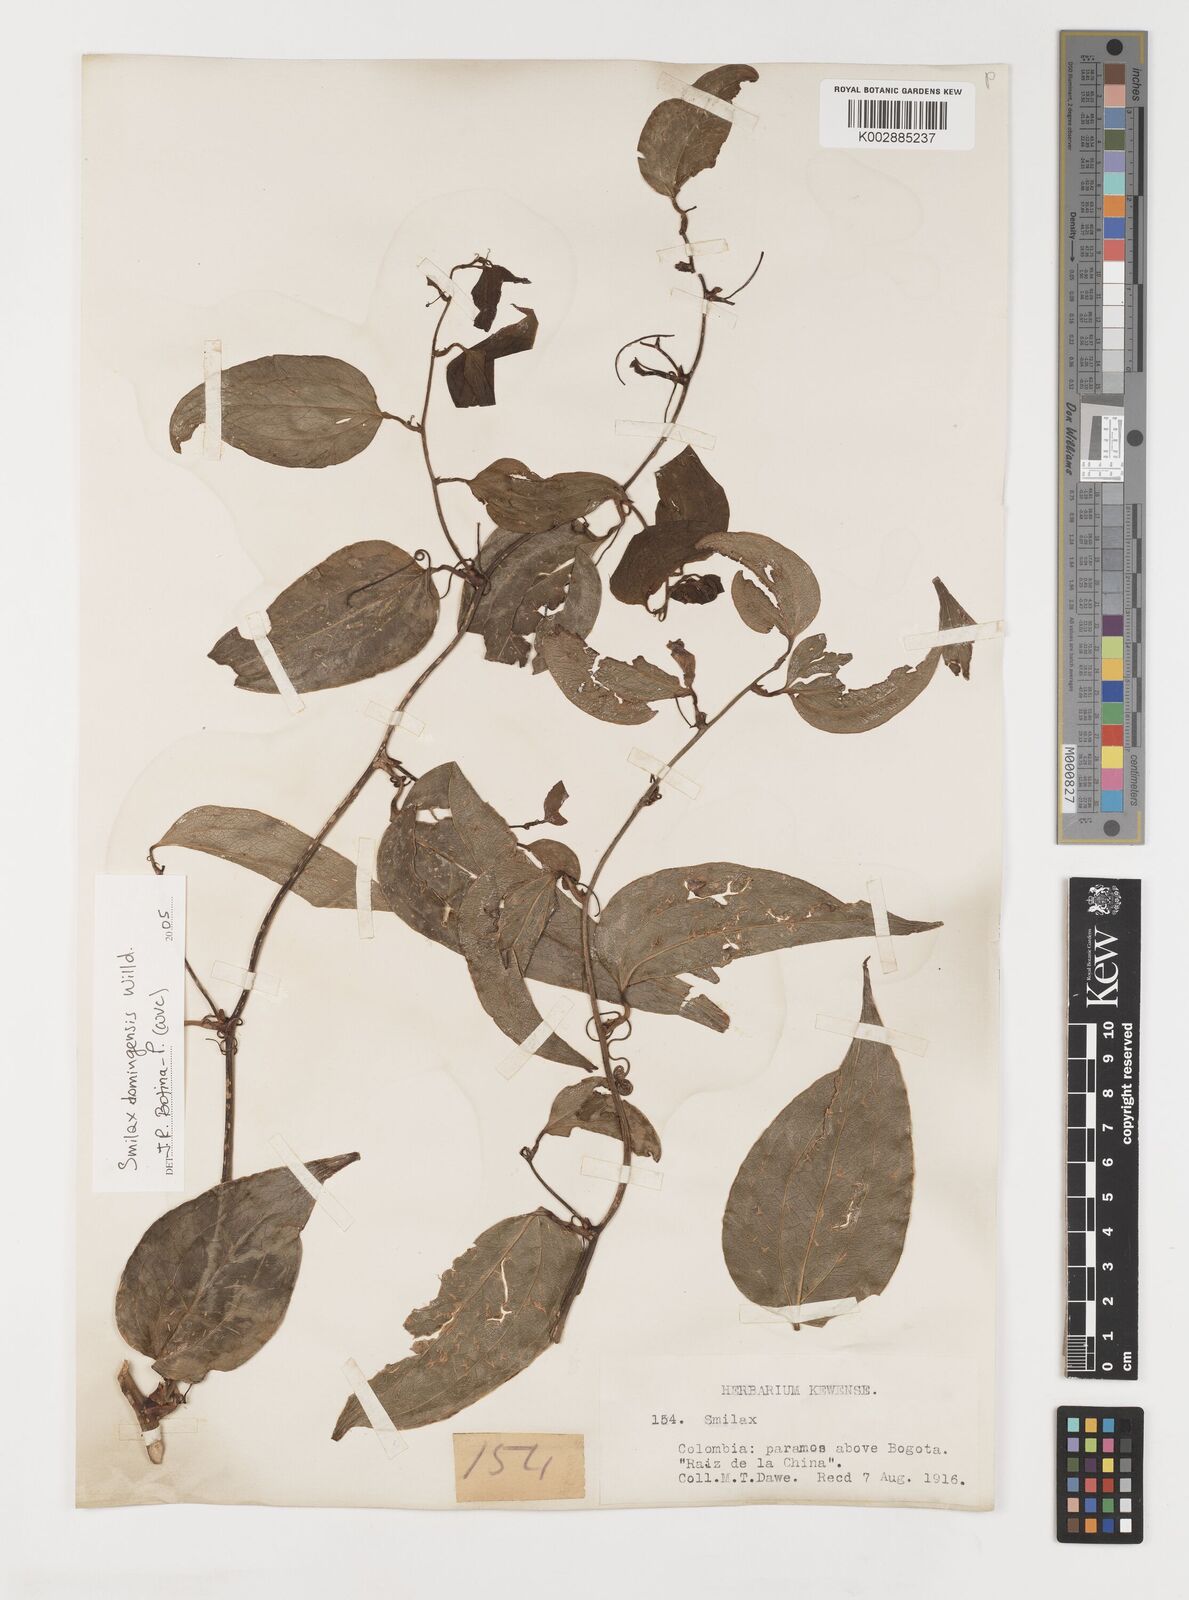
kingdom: Plantae
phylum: Tracheophyta
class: Liliopsida
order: Liliales
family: Smilacaceae
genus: Smilax
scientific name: Smilax domingensis
